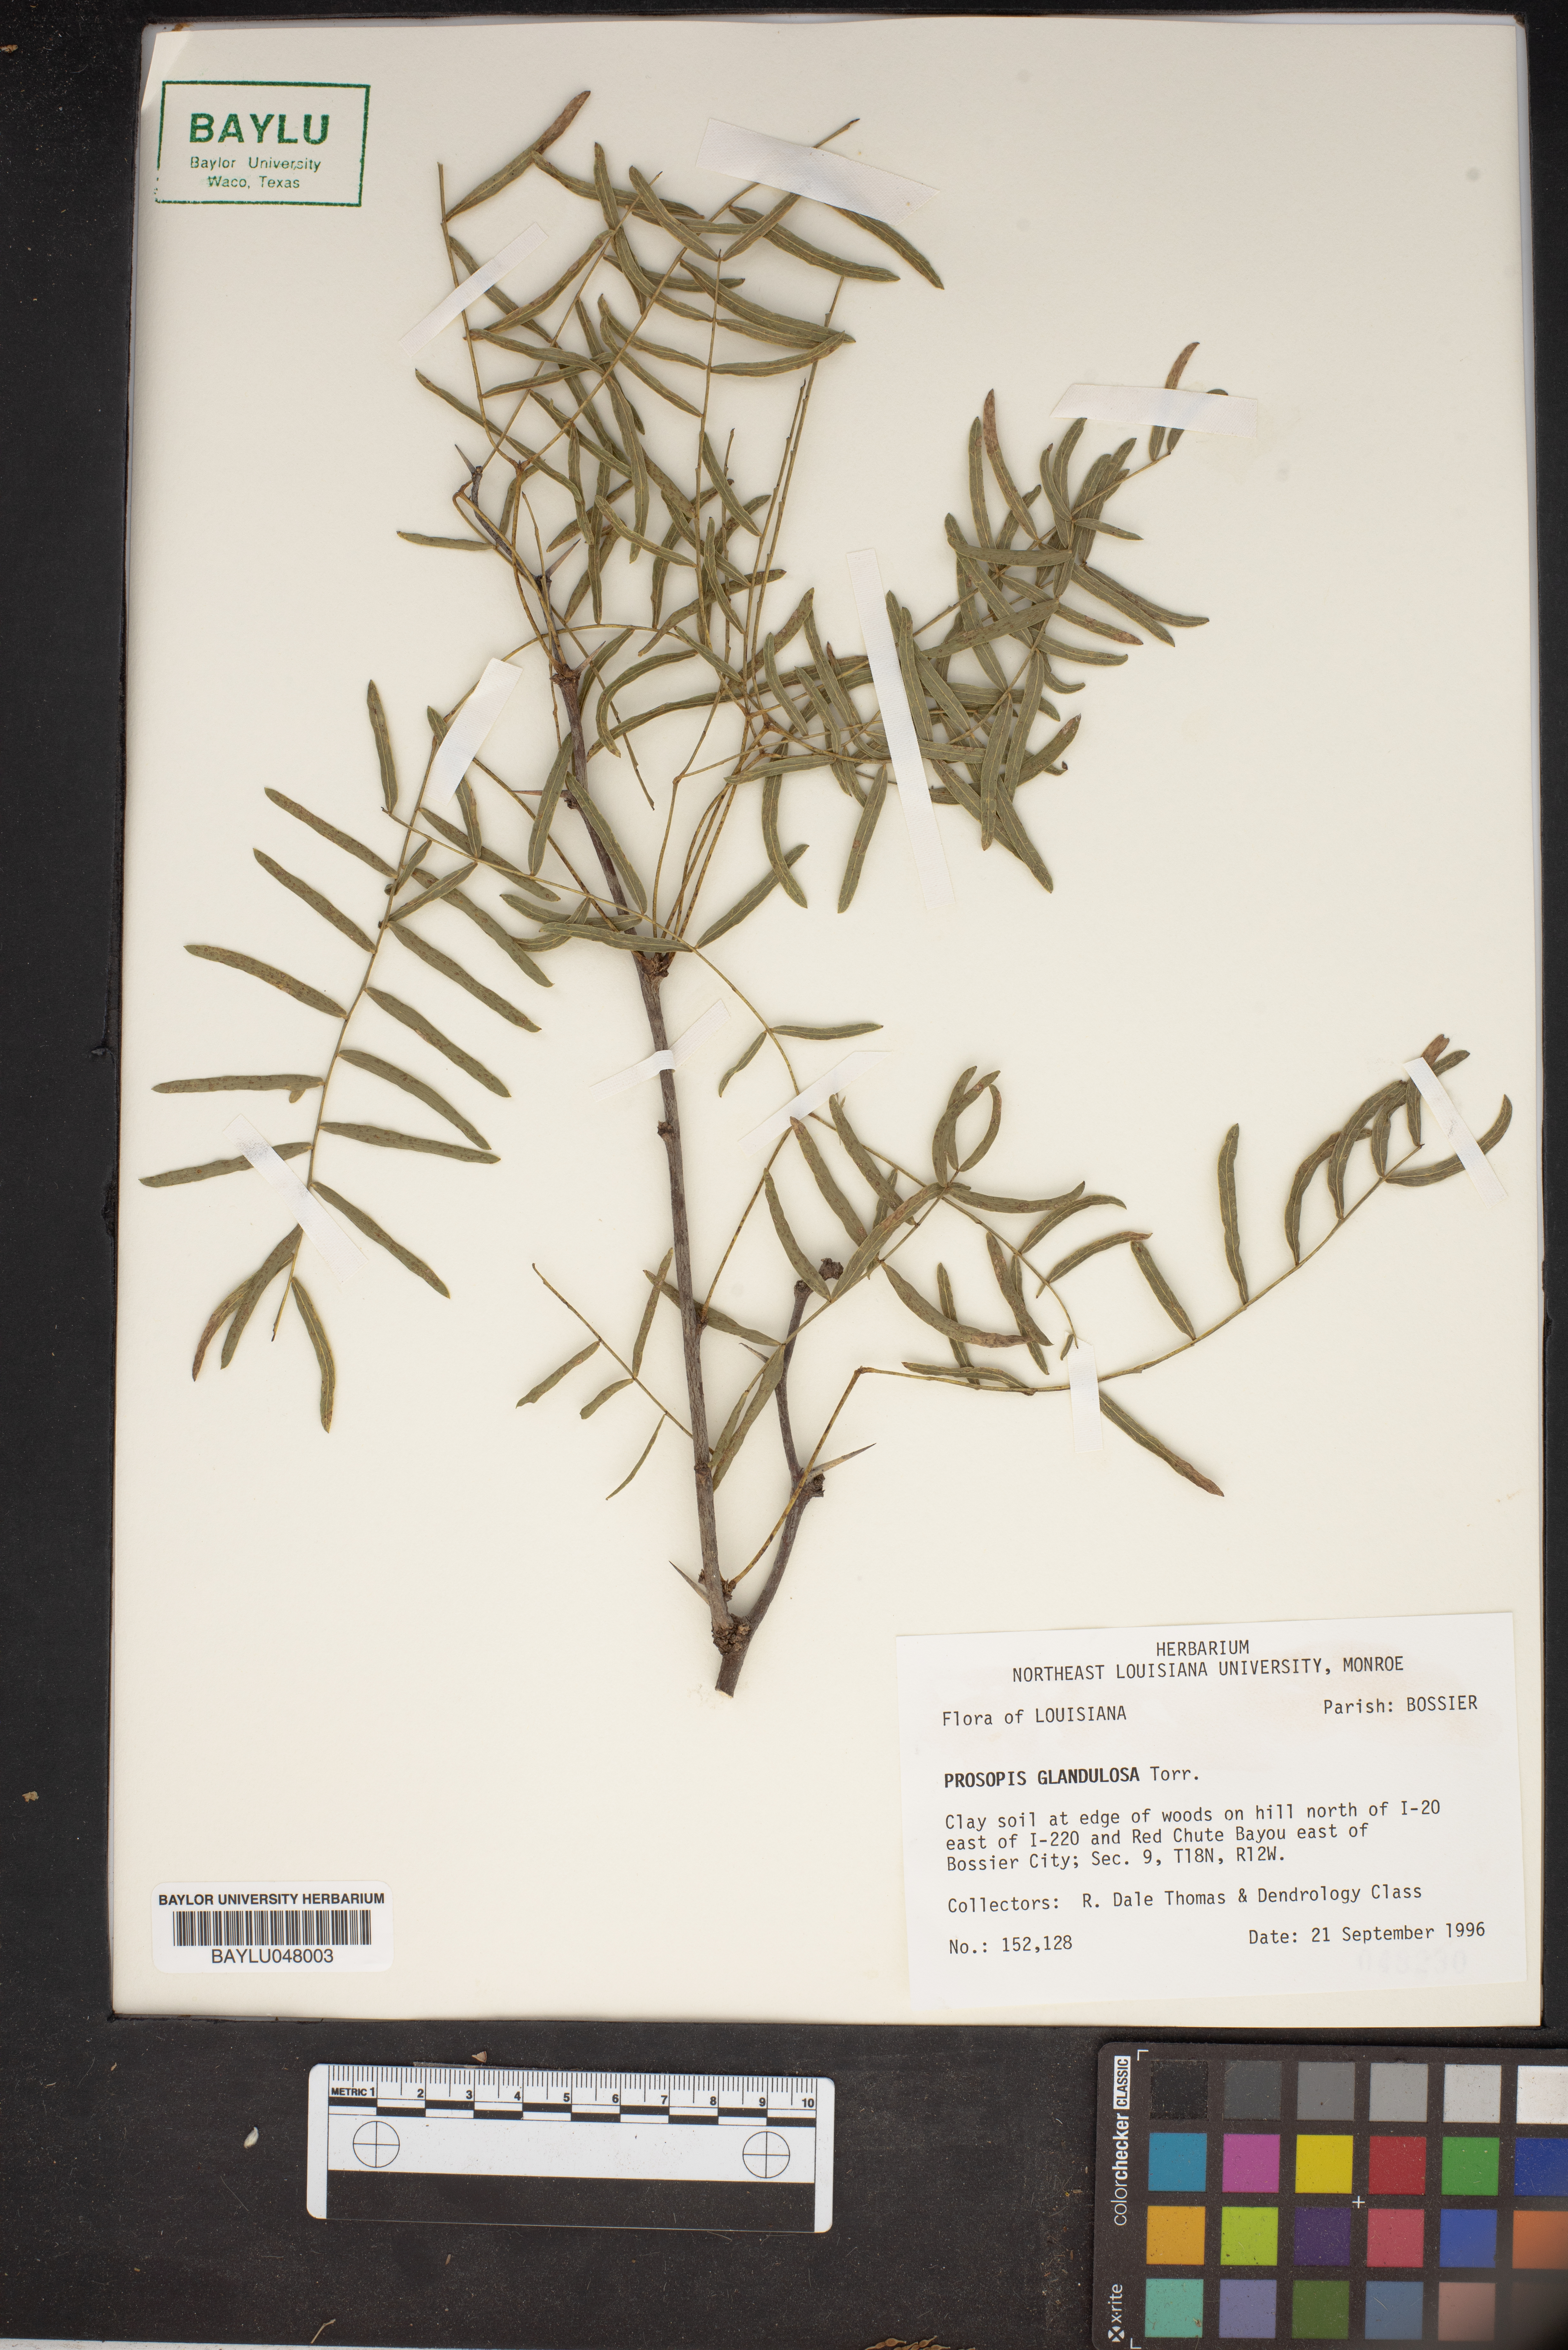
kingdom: Plantae
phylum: Tracheophyta
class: Magnoliopsida
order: Fabales
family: Fabaceae
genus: Prosopis
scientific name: Prosopis glandulosa
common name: Honey mesquite
